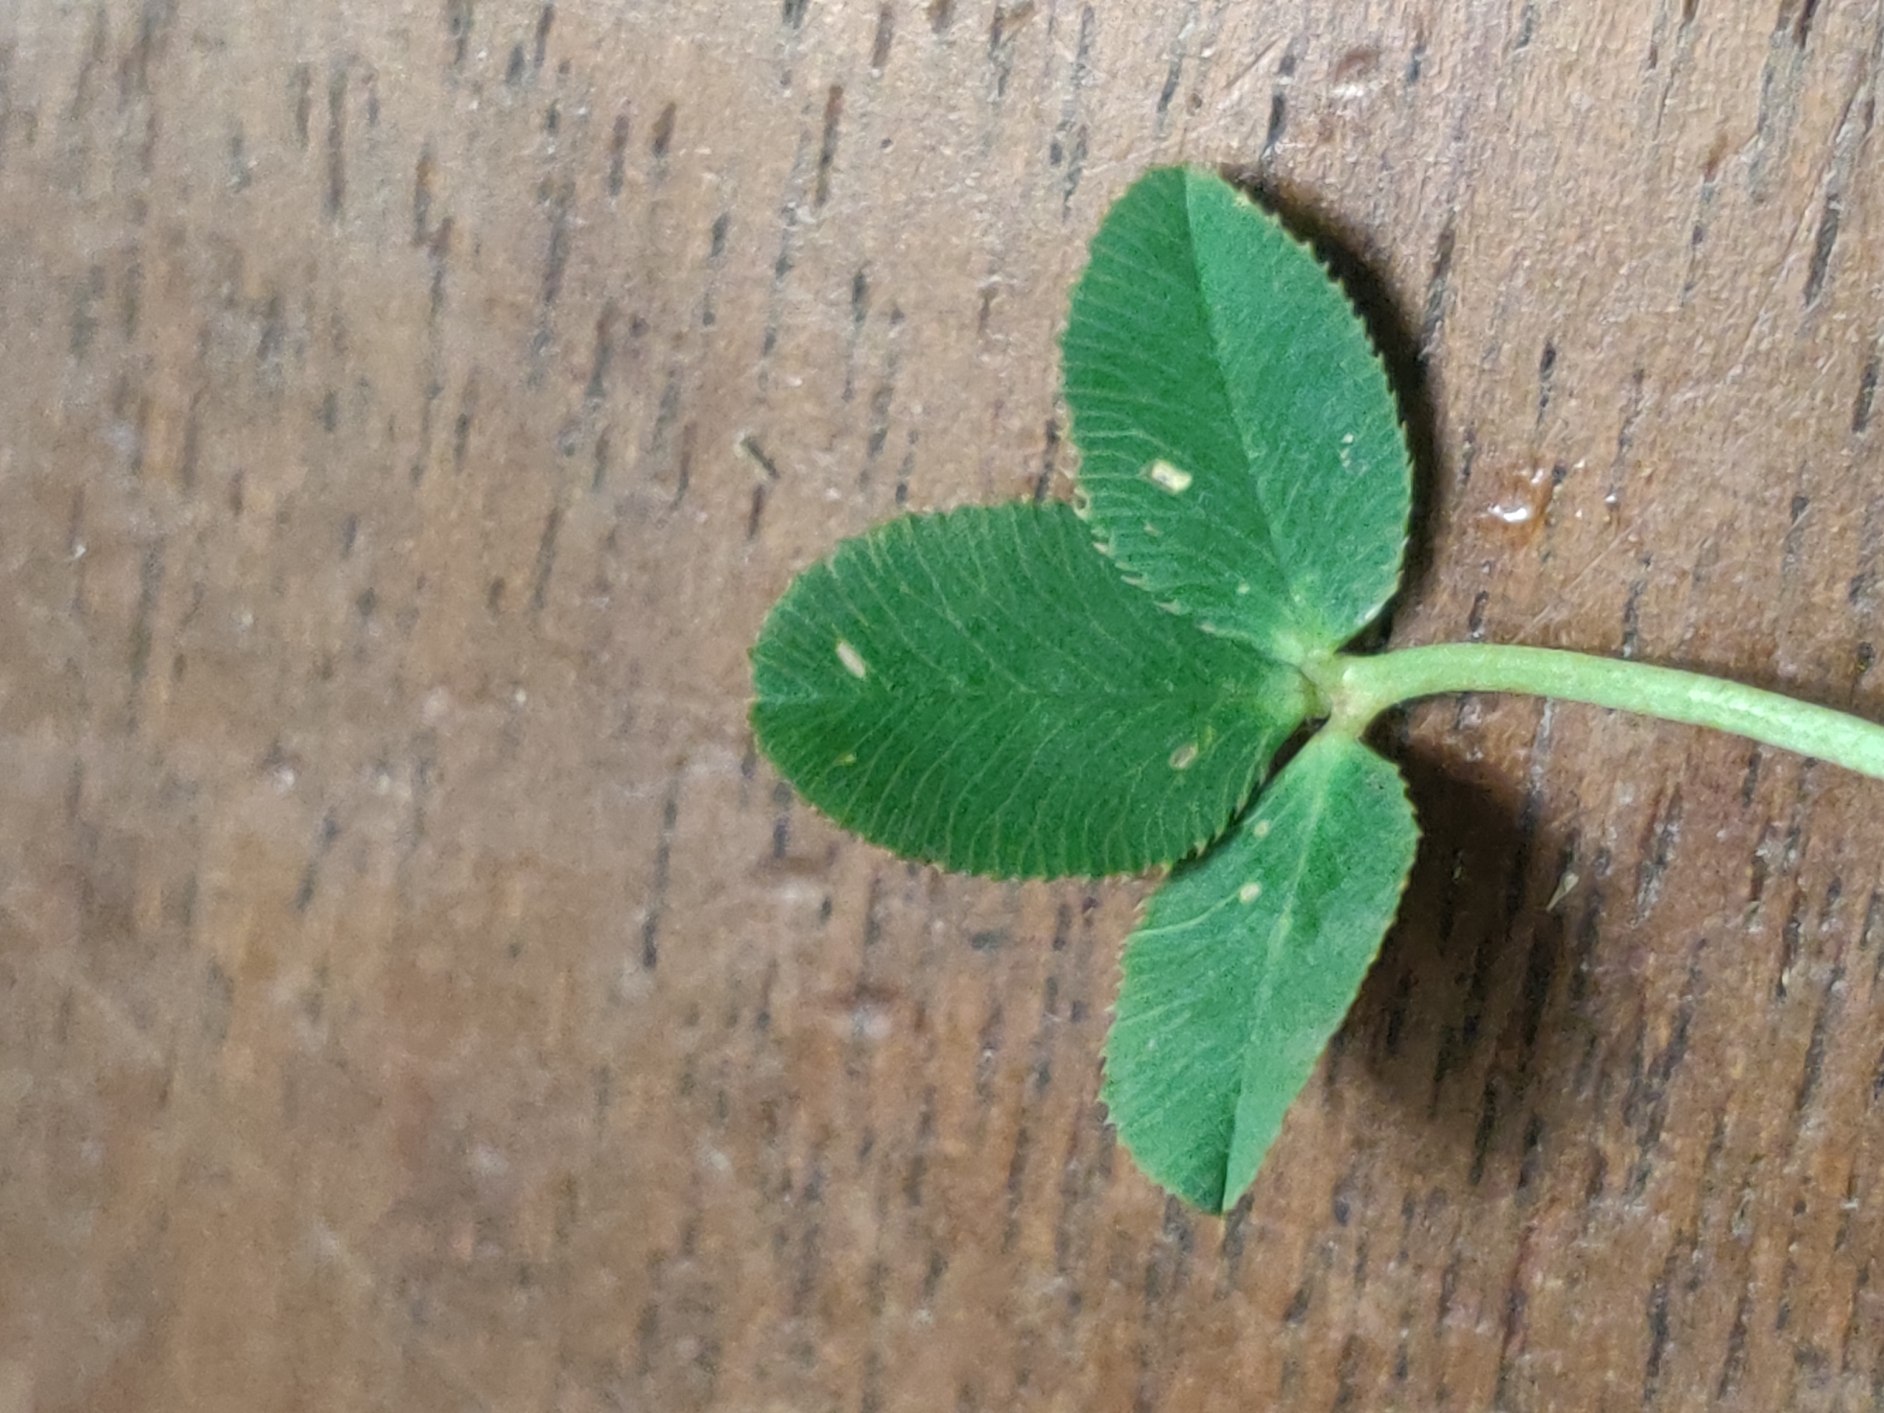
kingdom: Plantae
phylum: Tracheophyta
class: Magnoliopsida
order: Fabales
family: Fabaceae
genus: Trifolium
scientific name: Trifolium fragiferum
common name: Jordbær-kløver
